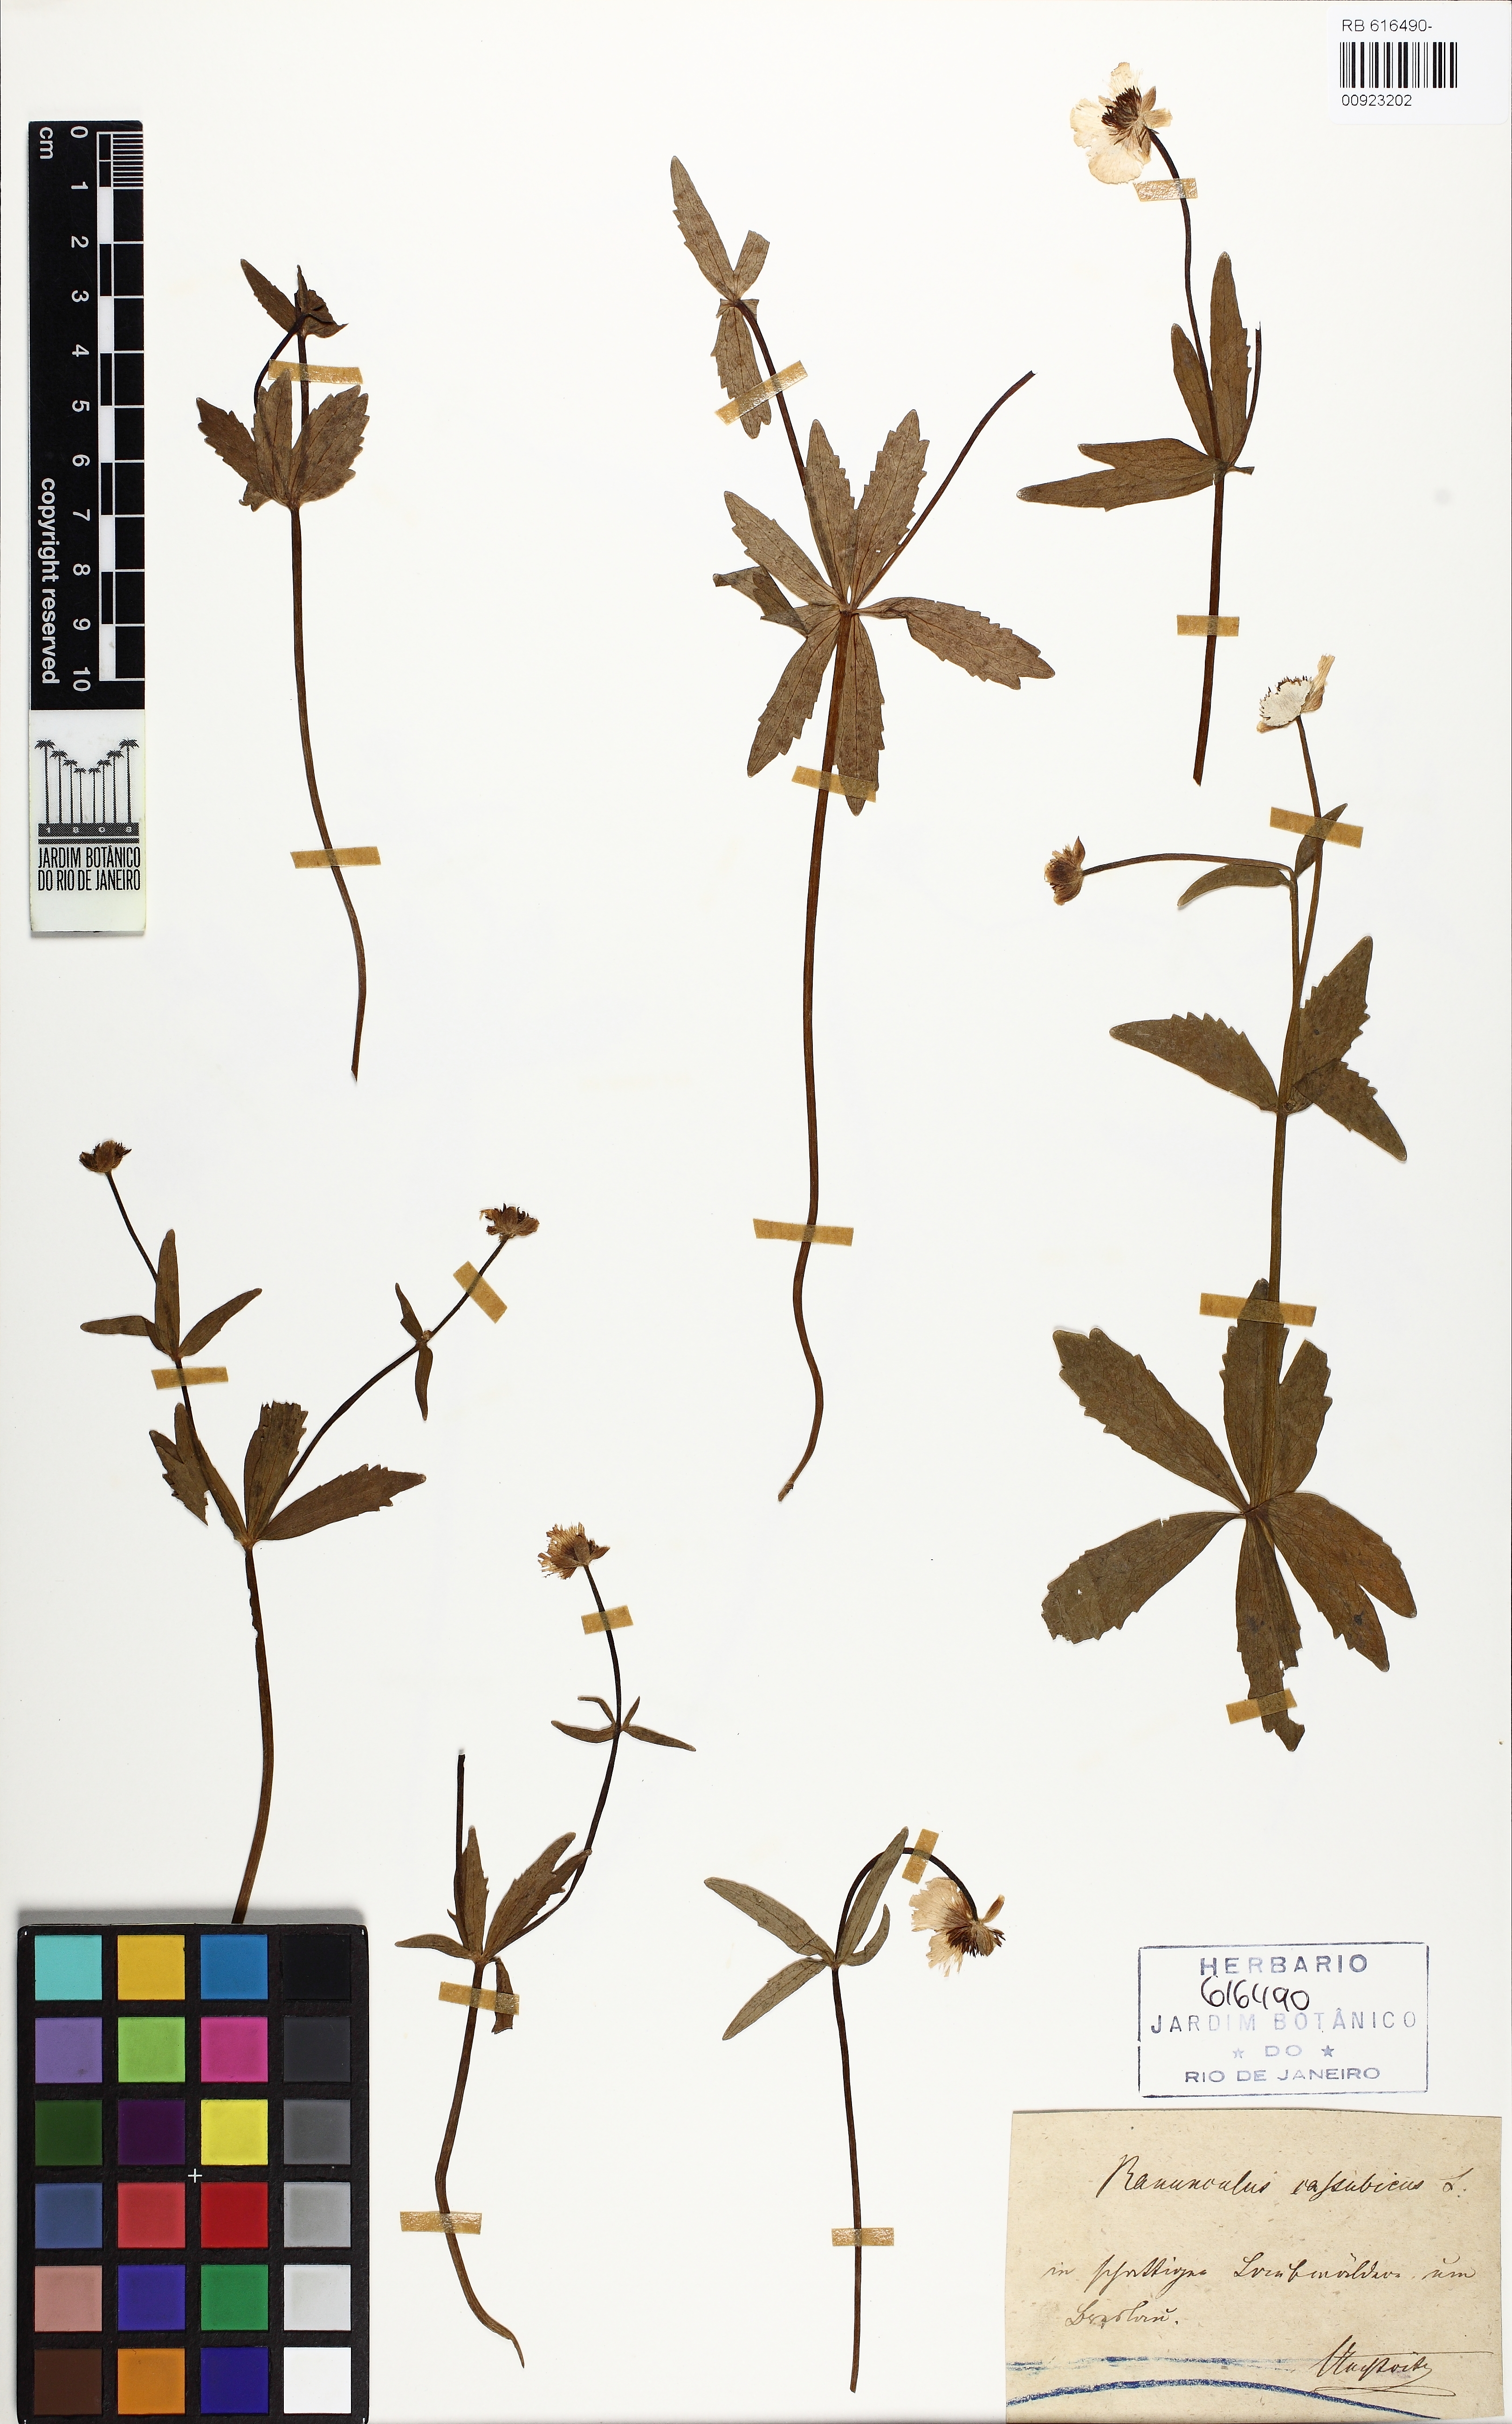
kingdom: Plantae
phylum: Tracheophyta
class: Magnoliopsida
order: Ranunculales
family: Ranunculaceae
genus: Ranunculus
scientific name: Ranunculus cassubicus
